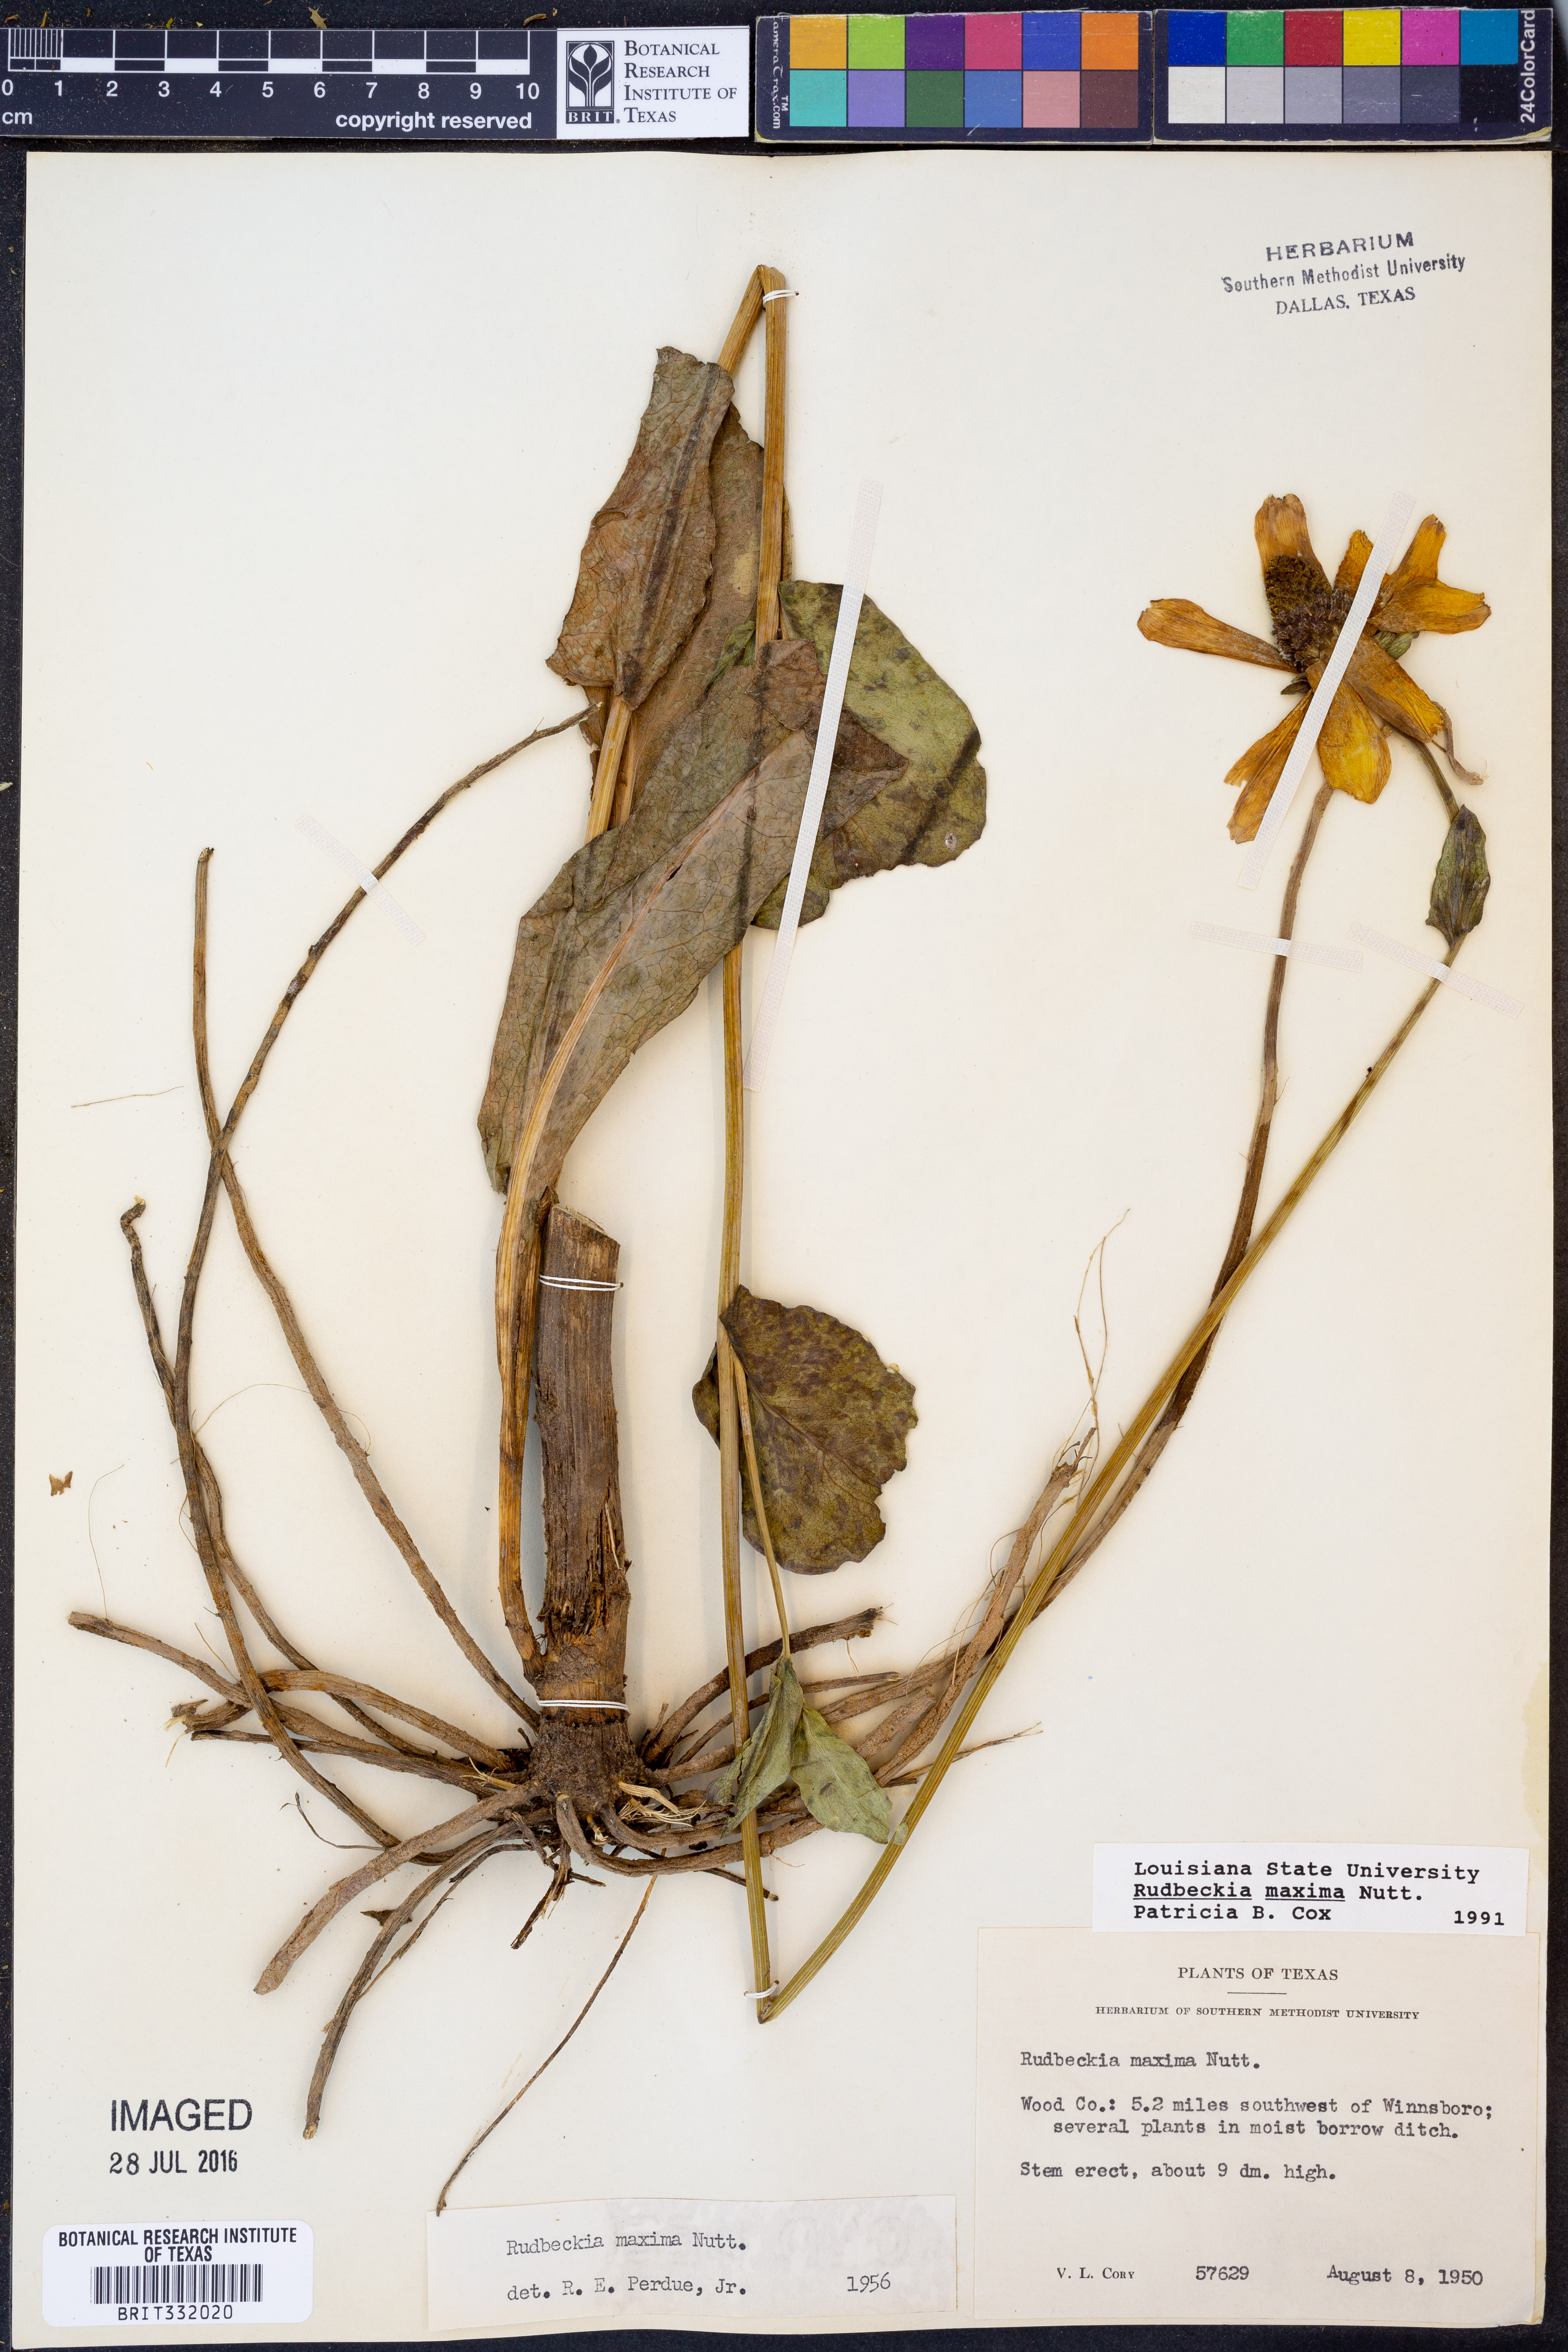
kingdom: Plantae
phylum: Tracheophyta
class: Magnoliopsida
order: Asterales
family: Asteraceae
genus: Rudbeckia
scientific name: Rudbeckia maxima
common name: Cabbage coneflower
